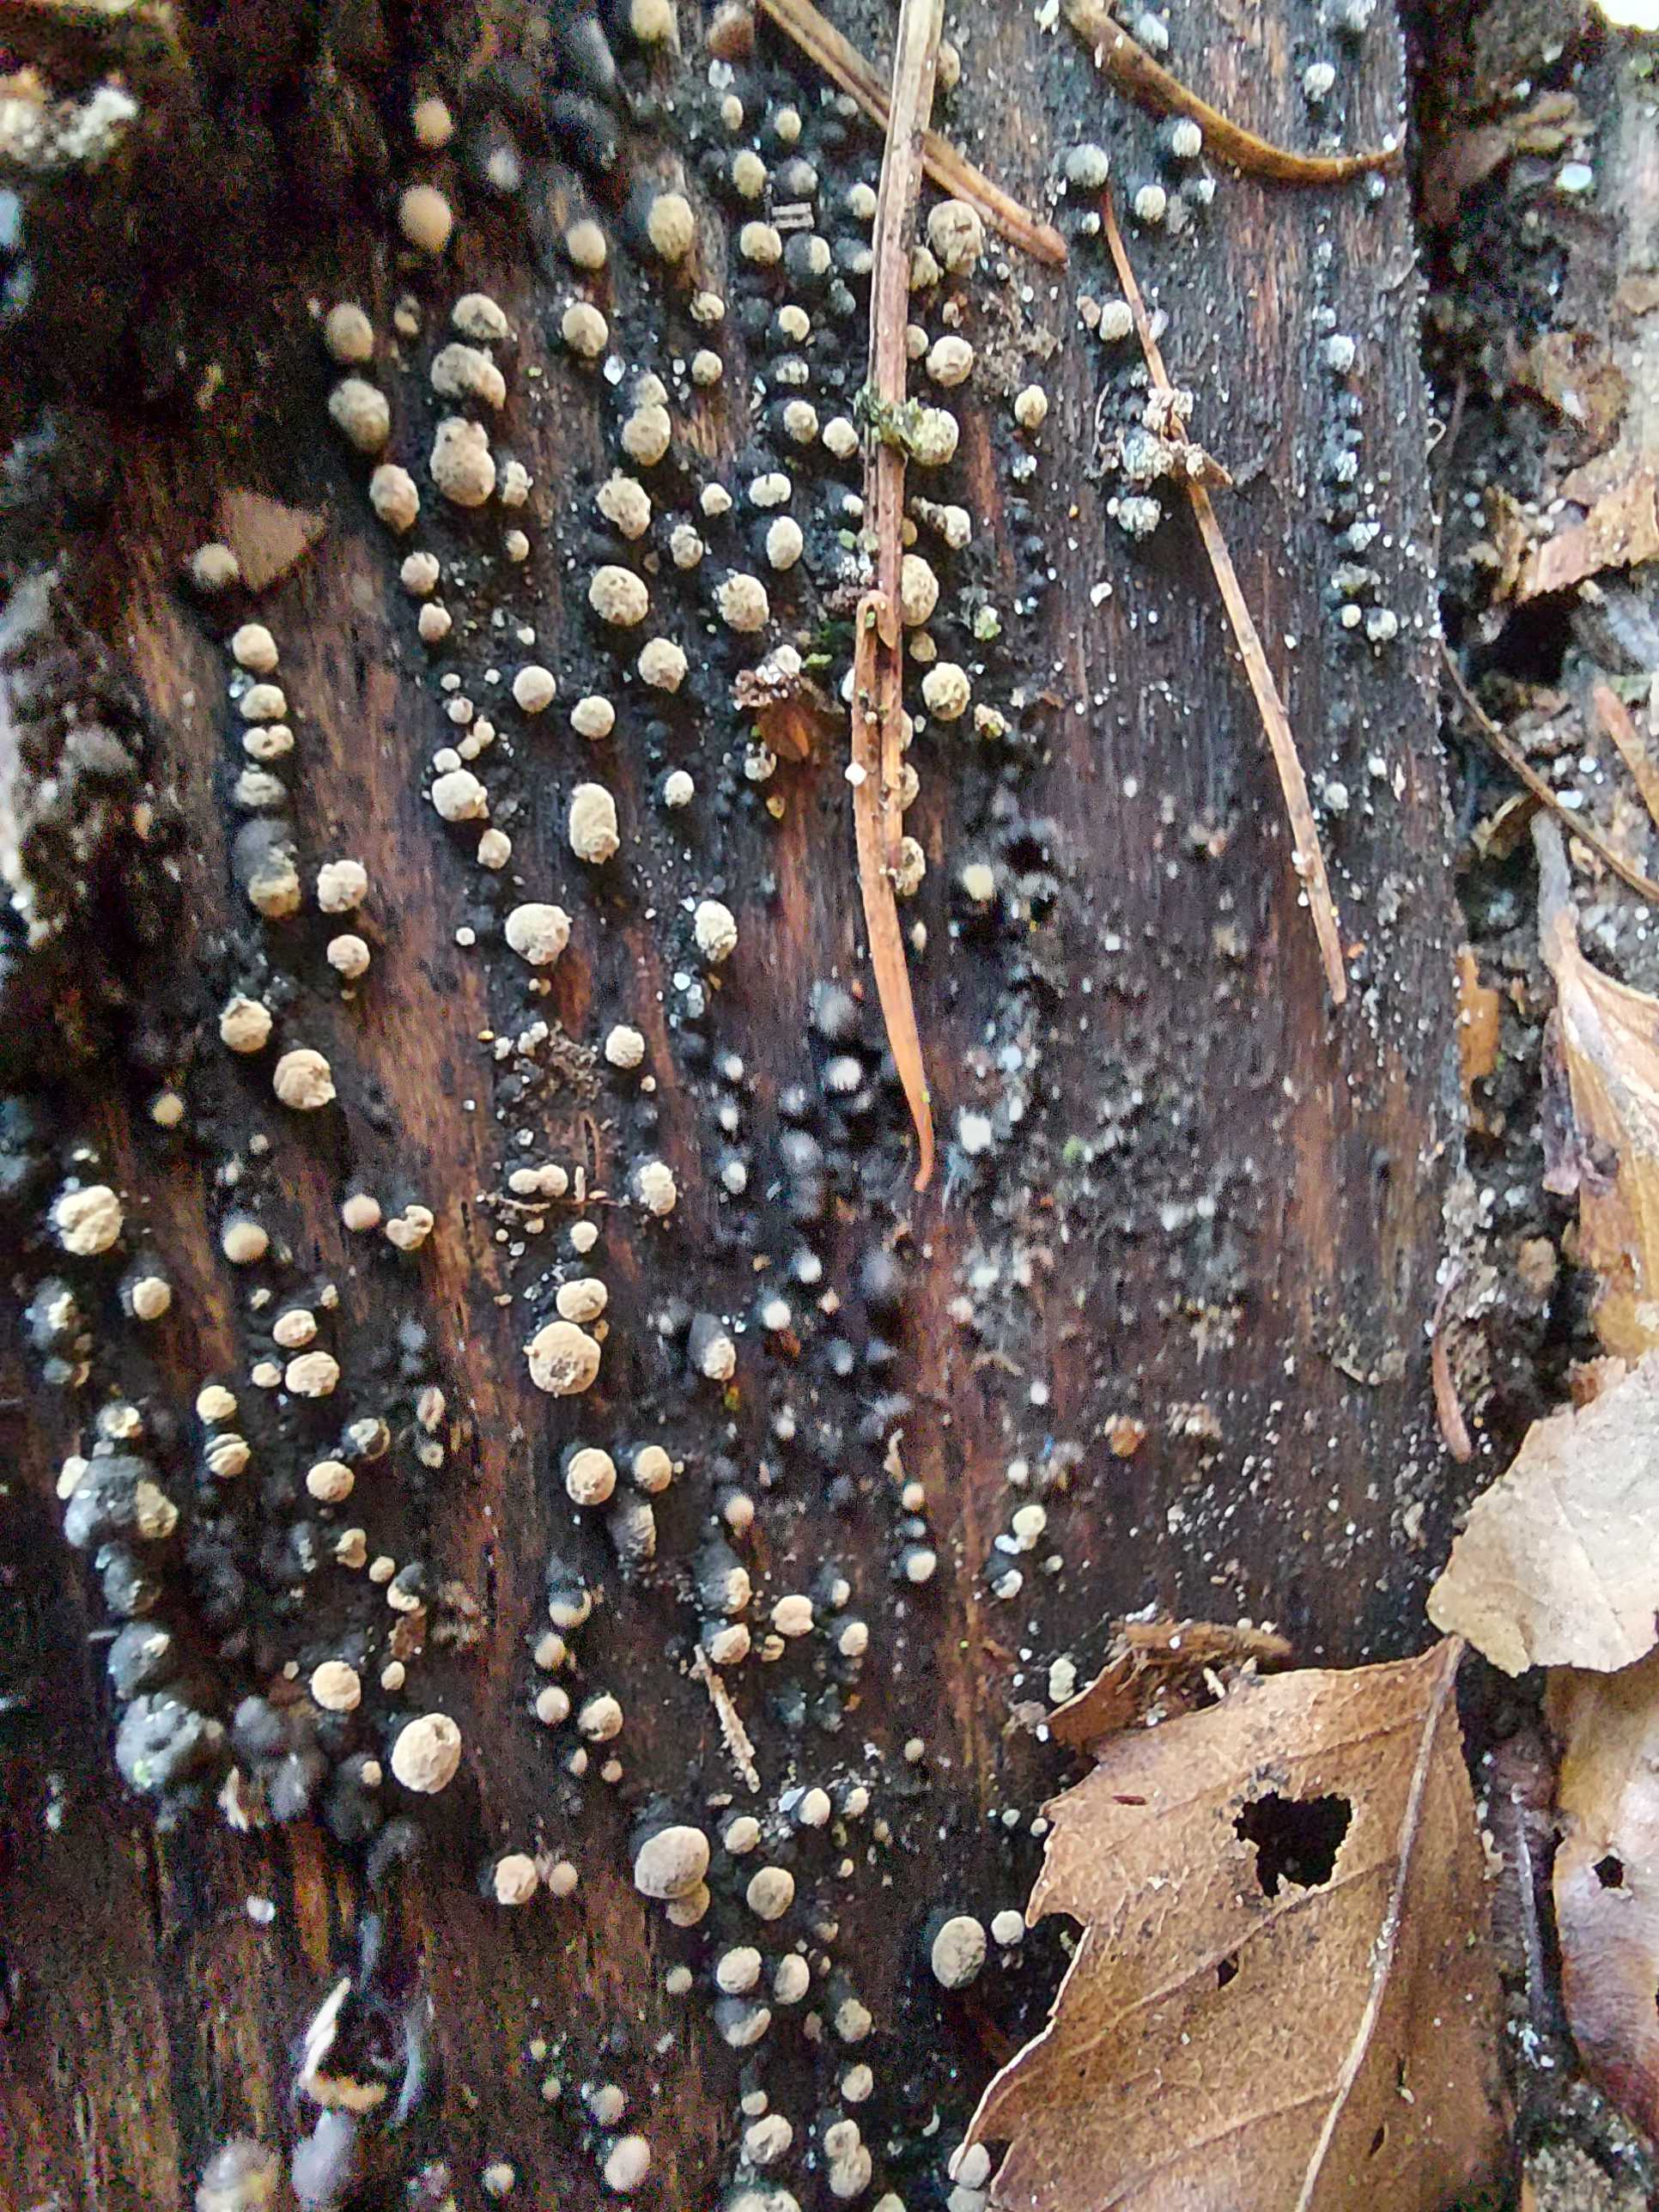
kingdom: Fungi
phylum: Ascomycota
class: Sordariomycetes
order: Xylariales
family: Hypoxylaceae
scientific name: Hypoxylaceae
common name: kulbærfamilien
